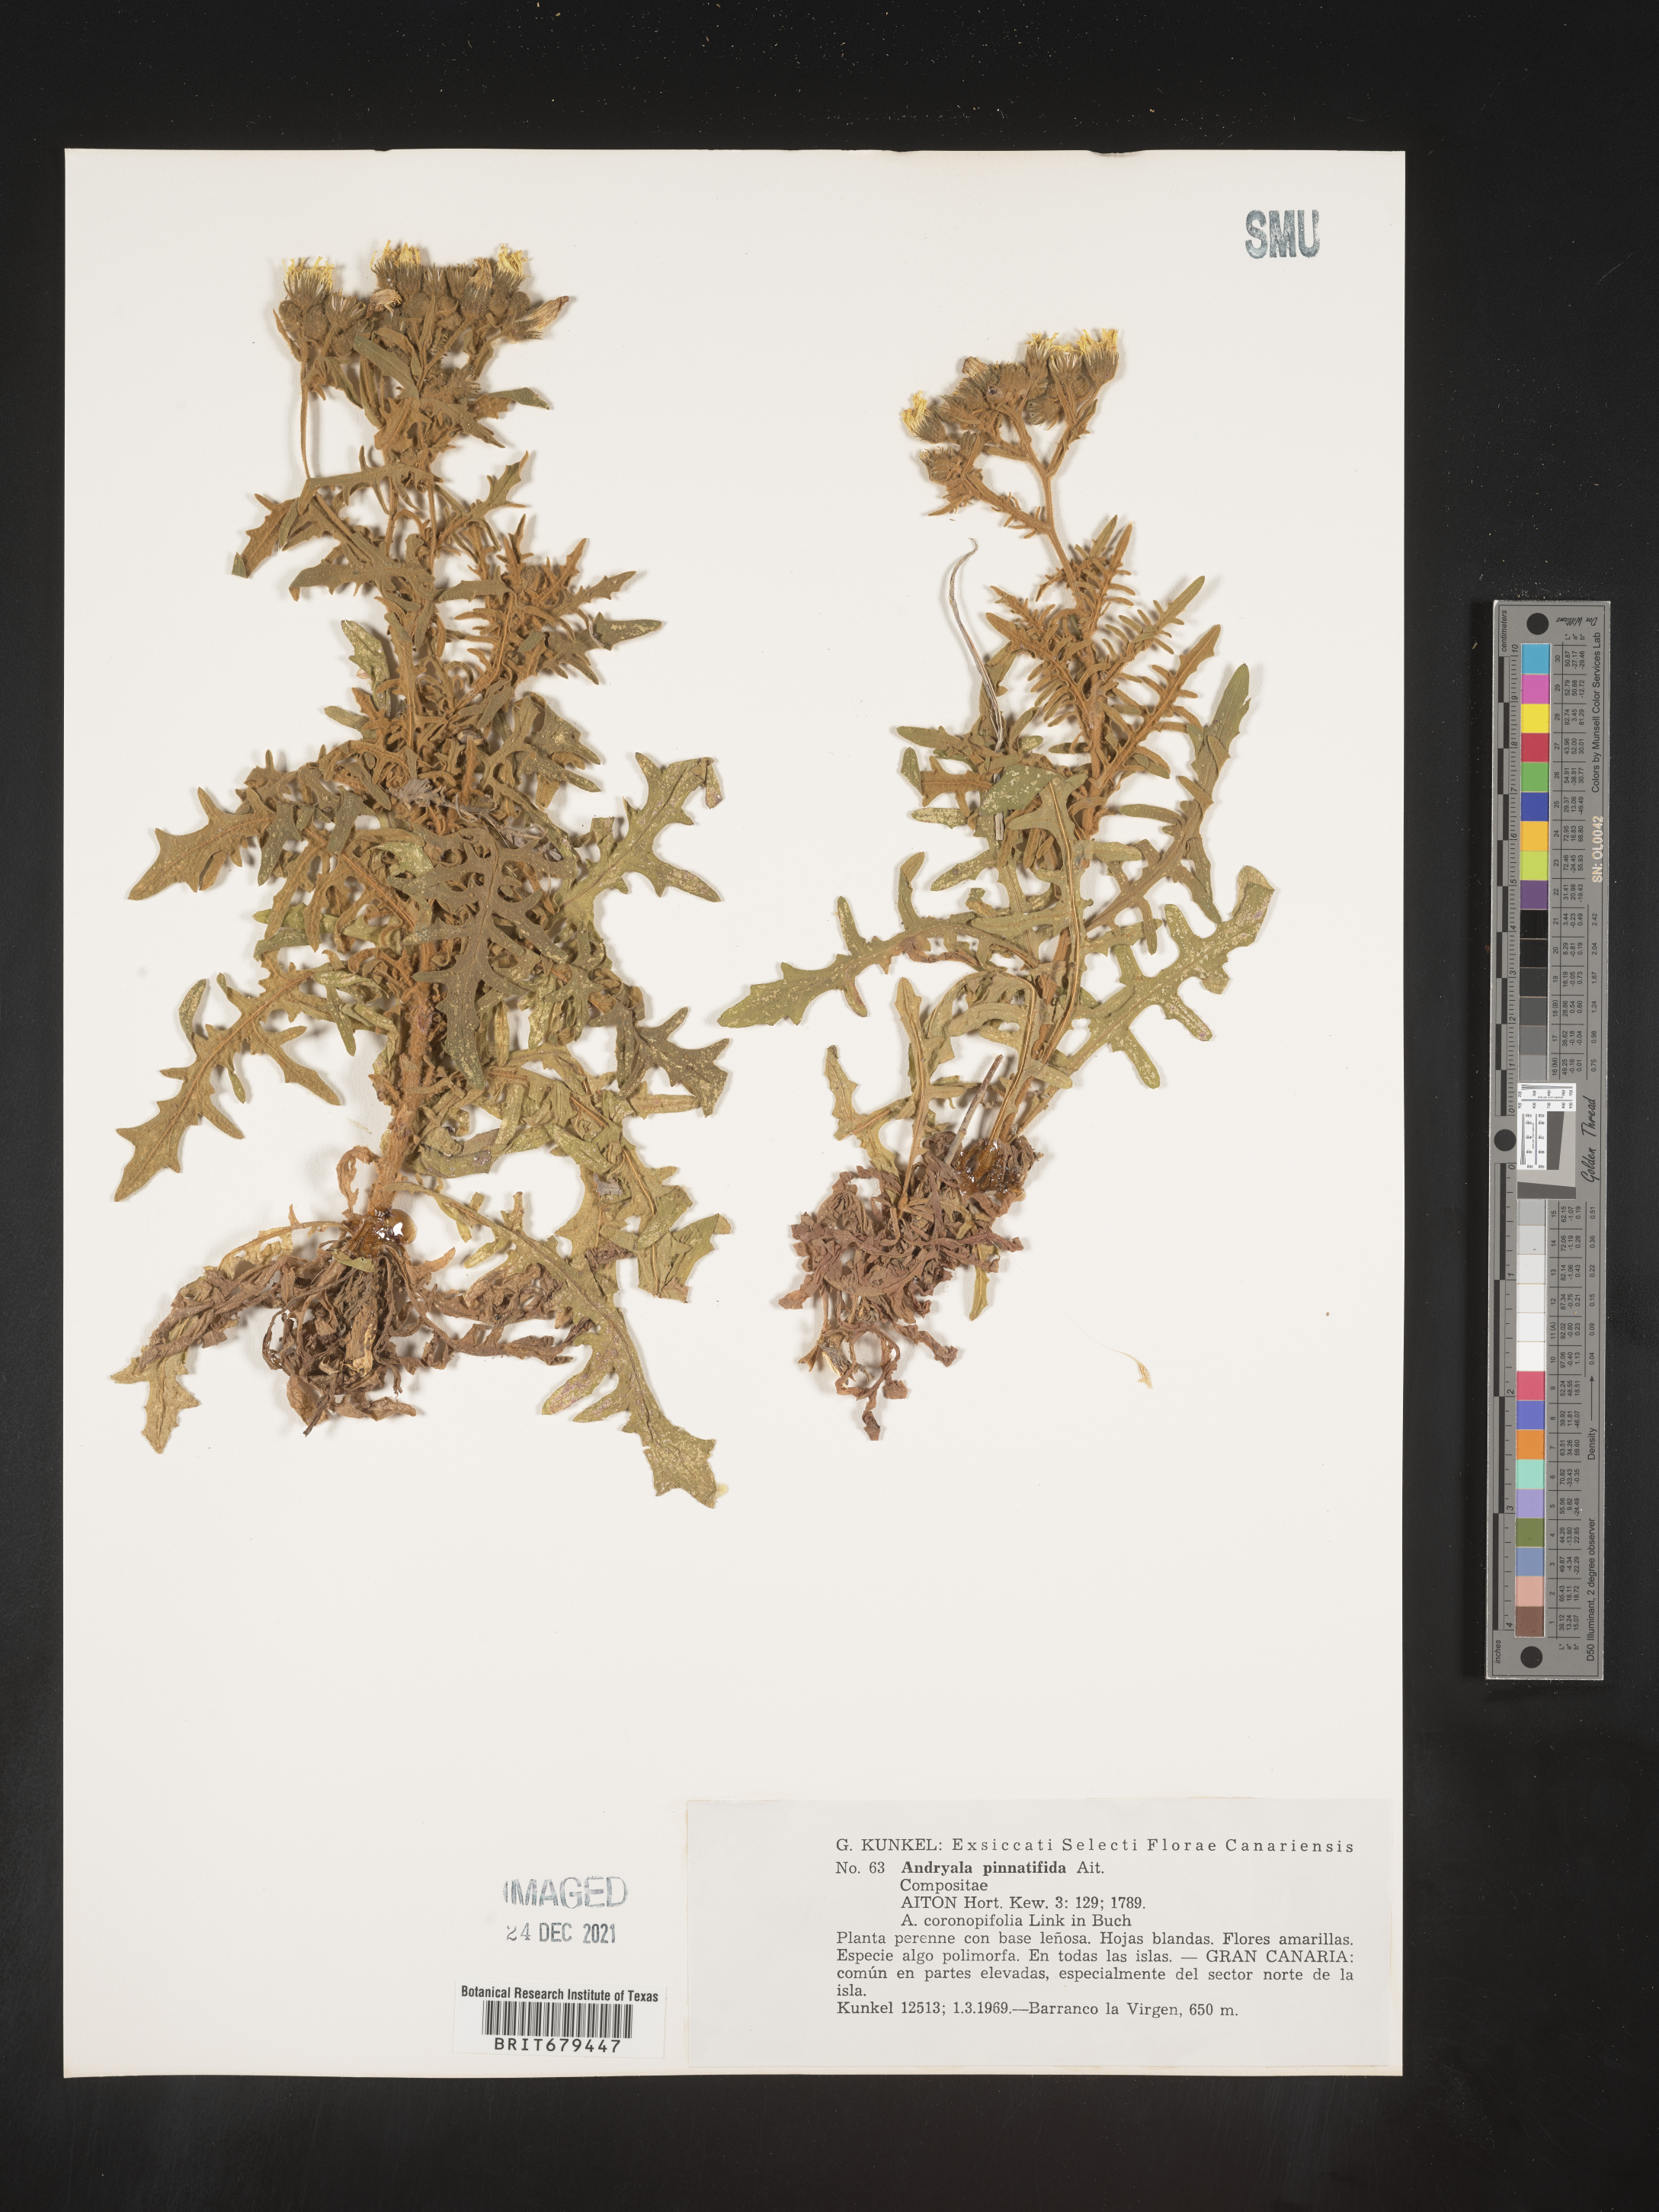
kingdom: Plantae
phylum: Tracheophyta
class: Magnoliopsida
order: Asterales
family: Asteraceae
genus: Andryala
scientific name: Andryala
